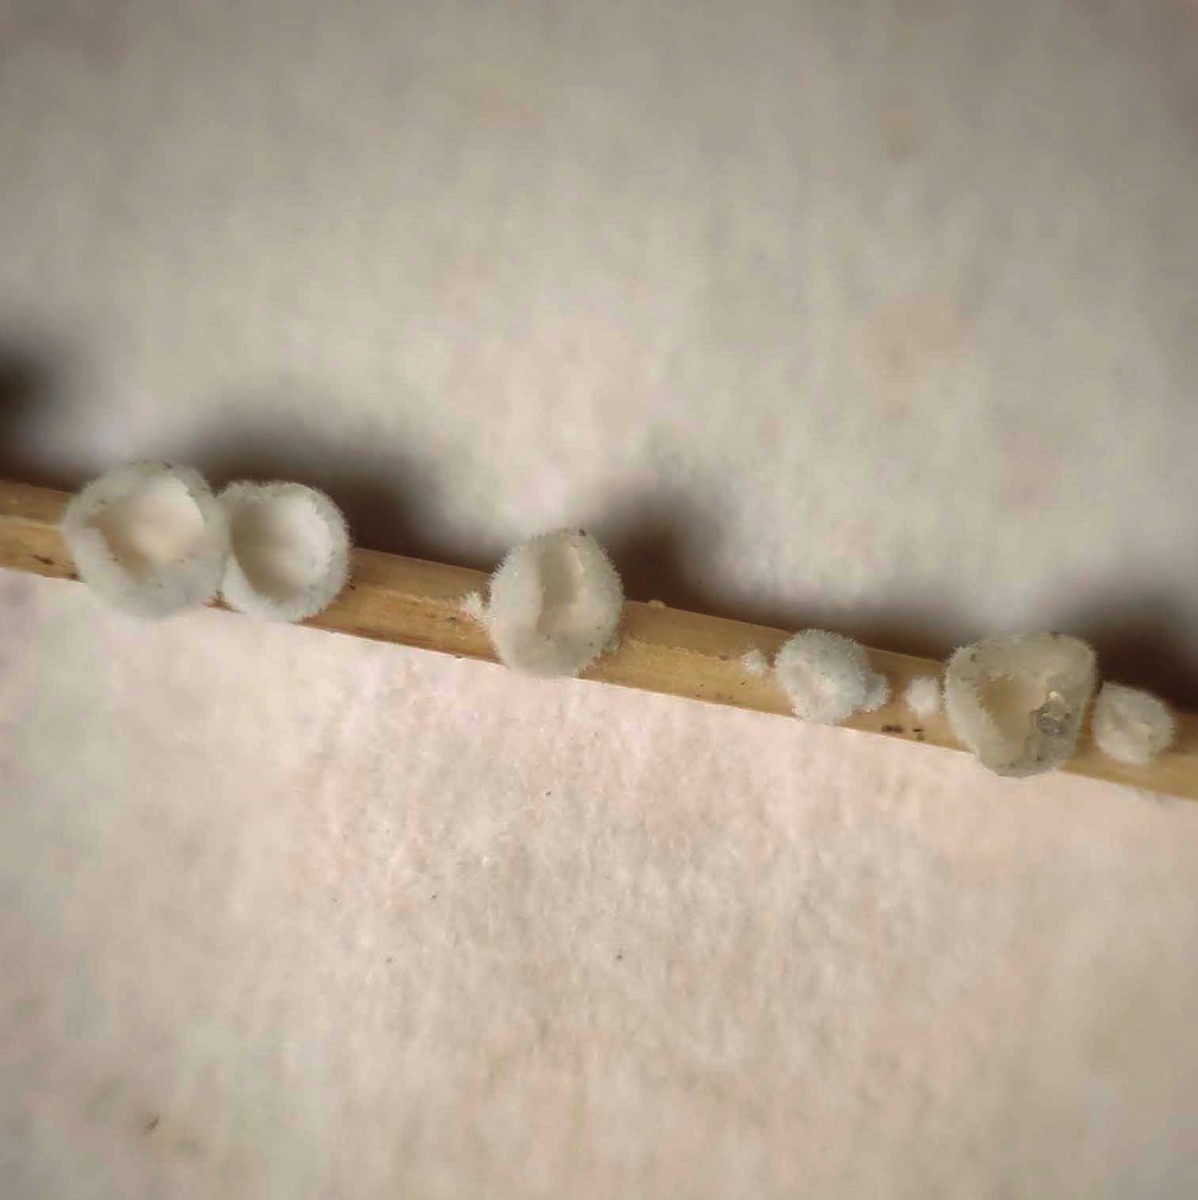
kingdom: Fungi
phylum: Basidiomycota
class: Agaricomycetes
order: Agaricales
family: Tricholomataceae
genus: Cellypha
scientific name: Cellypha goldbachii
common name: dråbeskål
